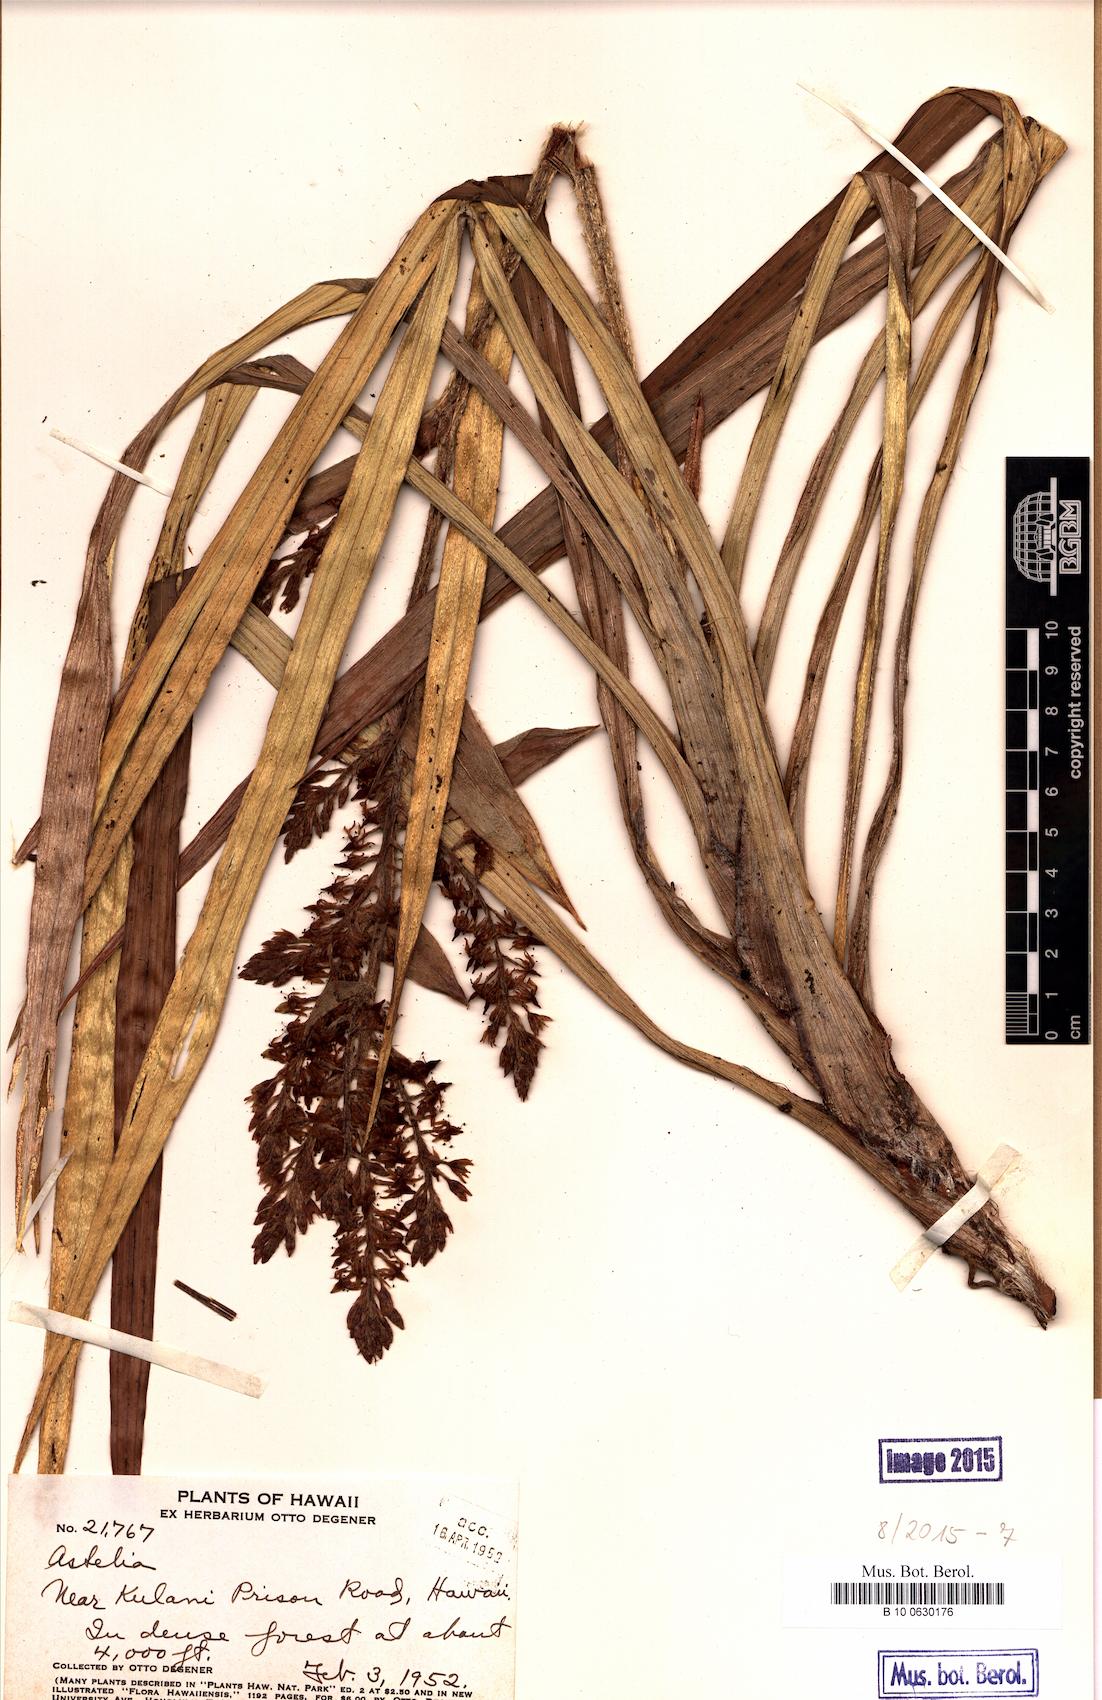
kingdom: Plantae
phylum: Tracheophyta
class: Magnoliopsida
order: Sapindales
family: Sapindaceae
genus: Paullinia
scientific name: Paullinia turbacensis
